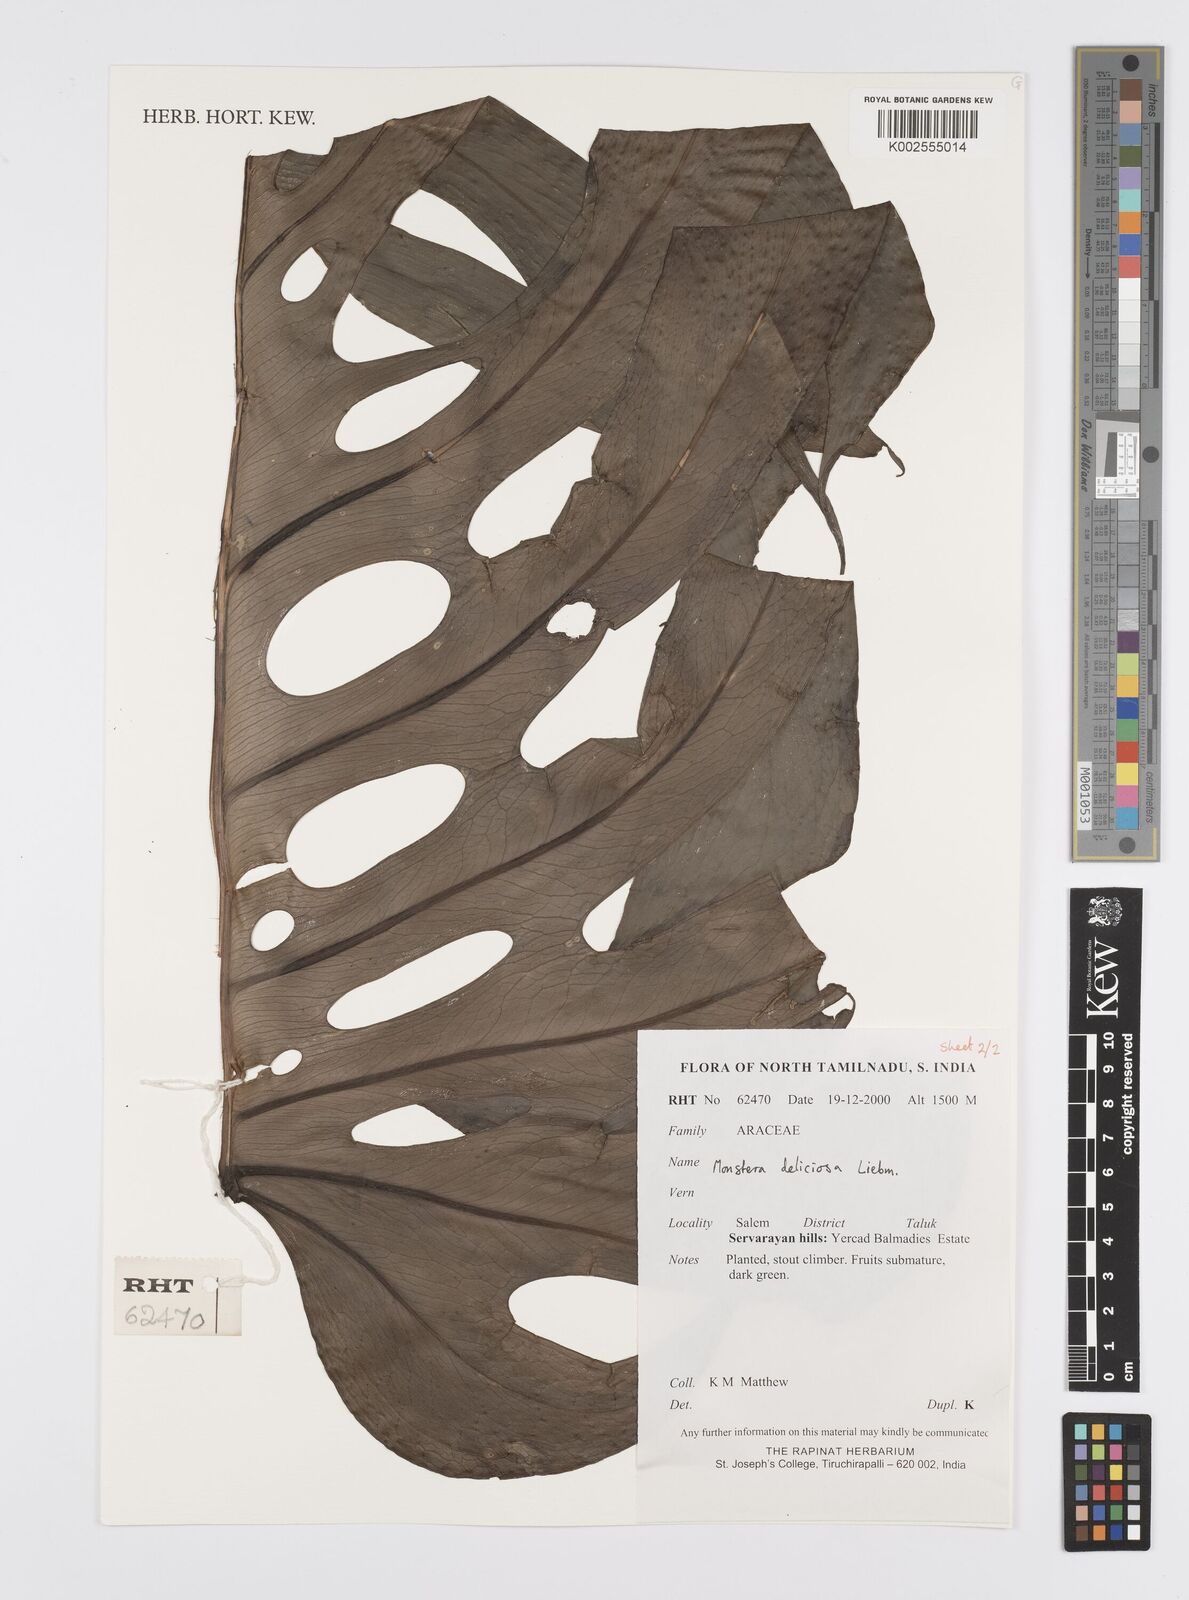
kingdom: Plantae
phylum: Tracheophyta
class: Liliopsida
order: Alismatales
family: Araceae
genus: Monstera
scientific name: Monstera deliciosa
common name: Cut-leaf-philodendron
